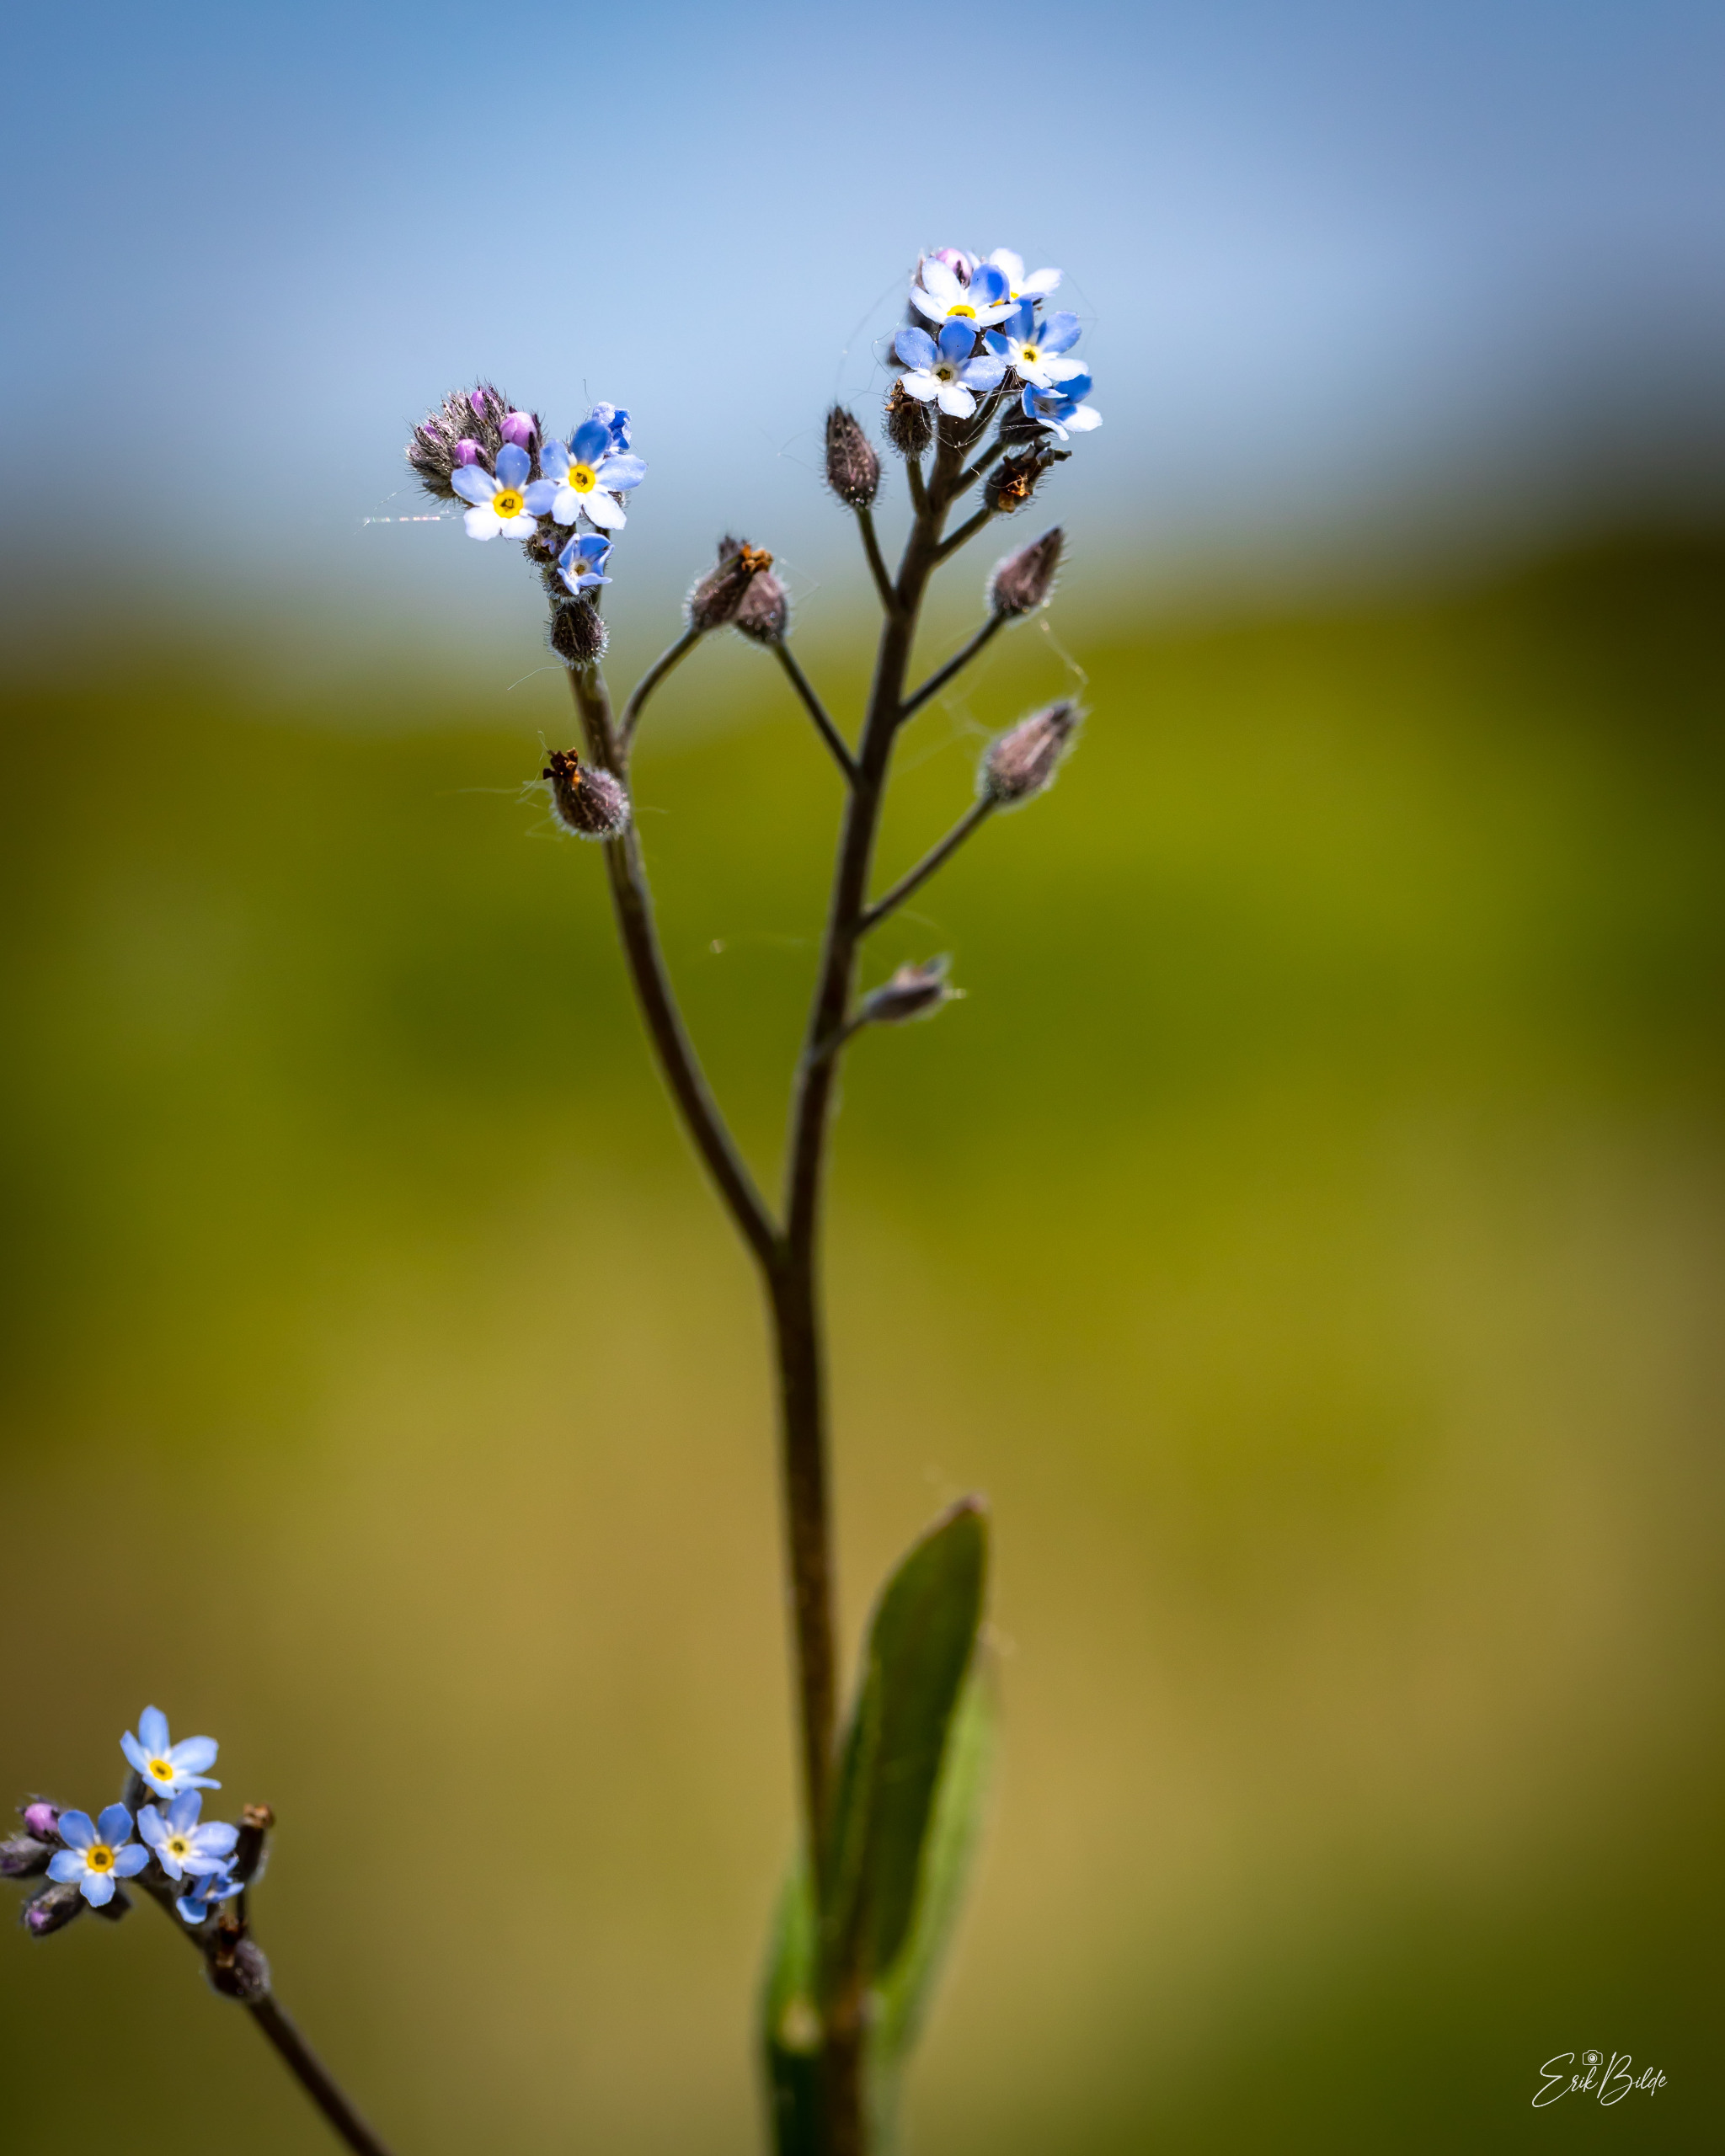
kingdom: Plantae
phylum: Tracheophyta
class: Magnoliopsida
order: Boraginales
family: Boraginaceae
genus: Myosotis
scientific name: Myosotis arvensis
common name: Mark-forglemmigej
